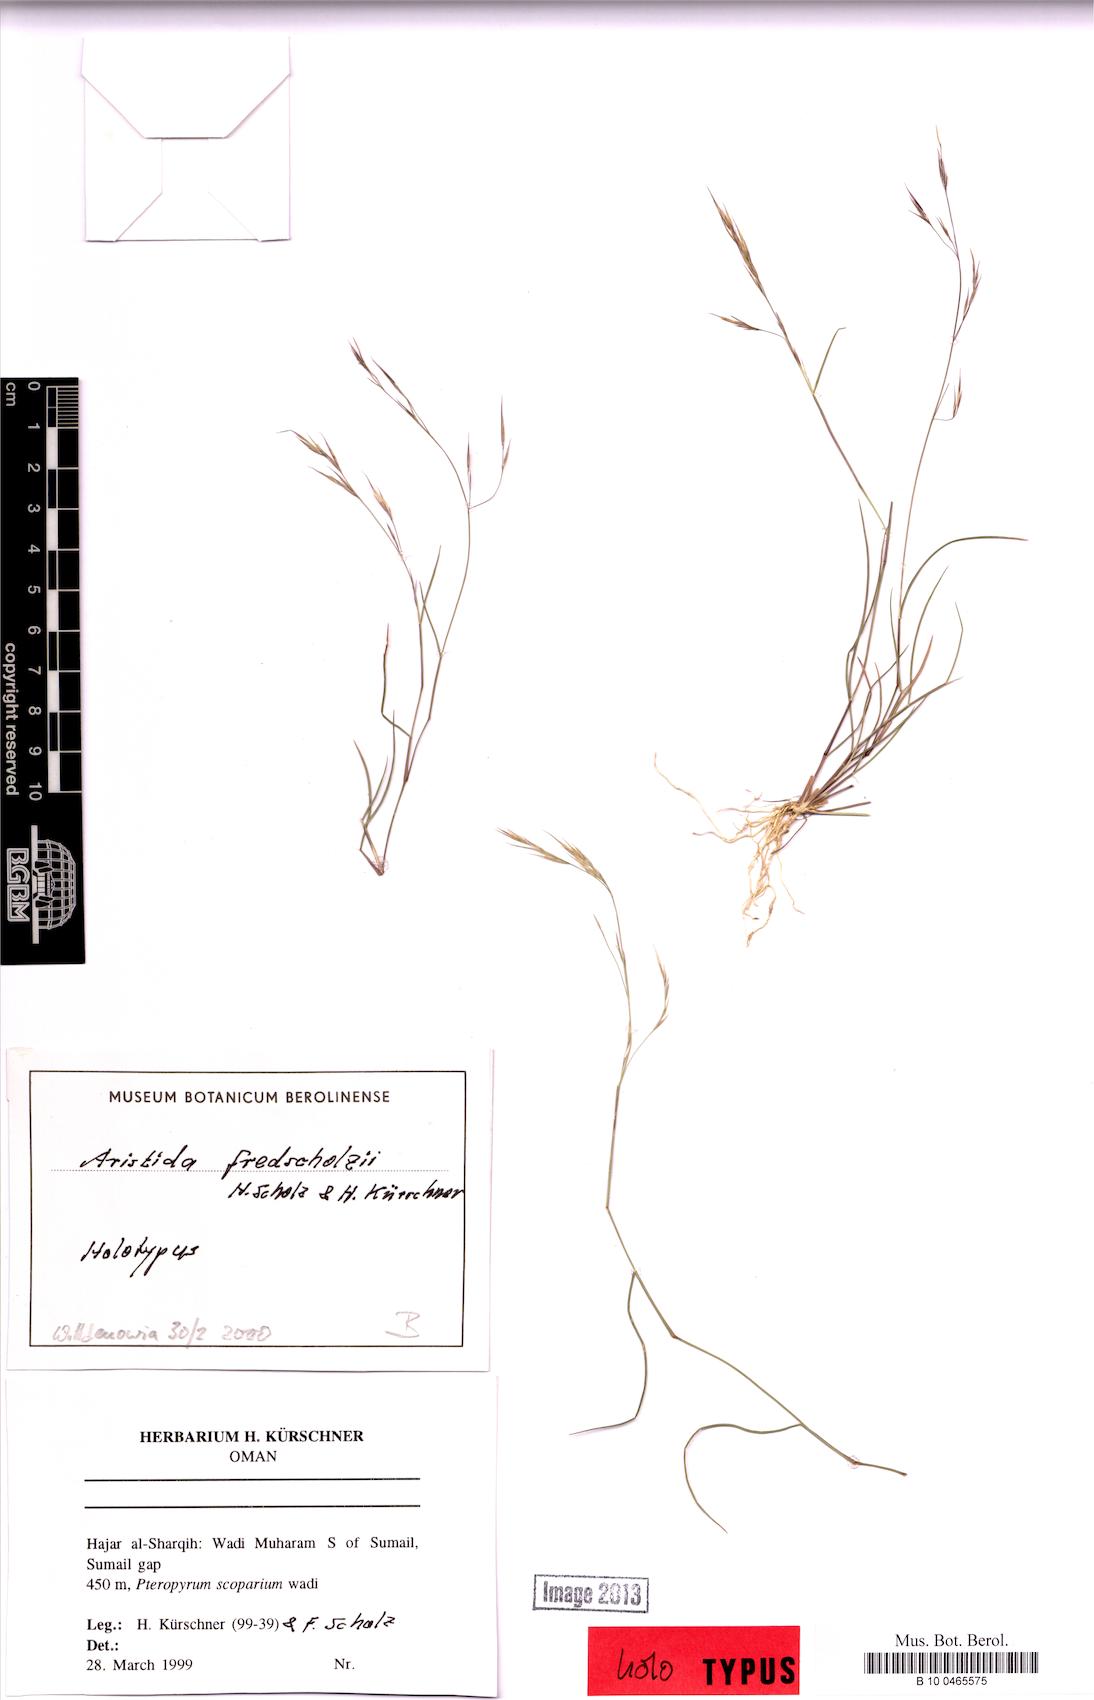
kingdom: Plantae
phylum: Tracheophyta
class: Liliopsida
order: Poales
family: Poaceae
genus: Aristida
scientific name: Aristida fredscholzii
